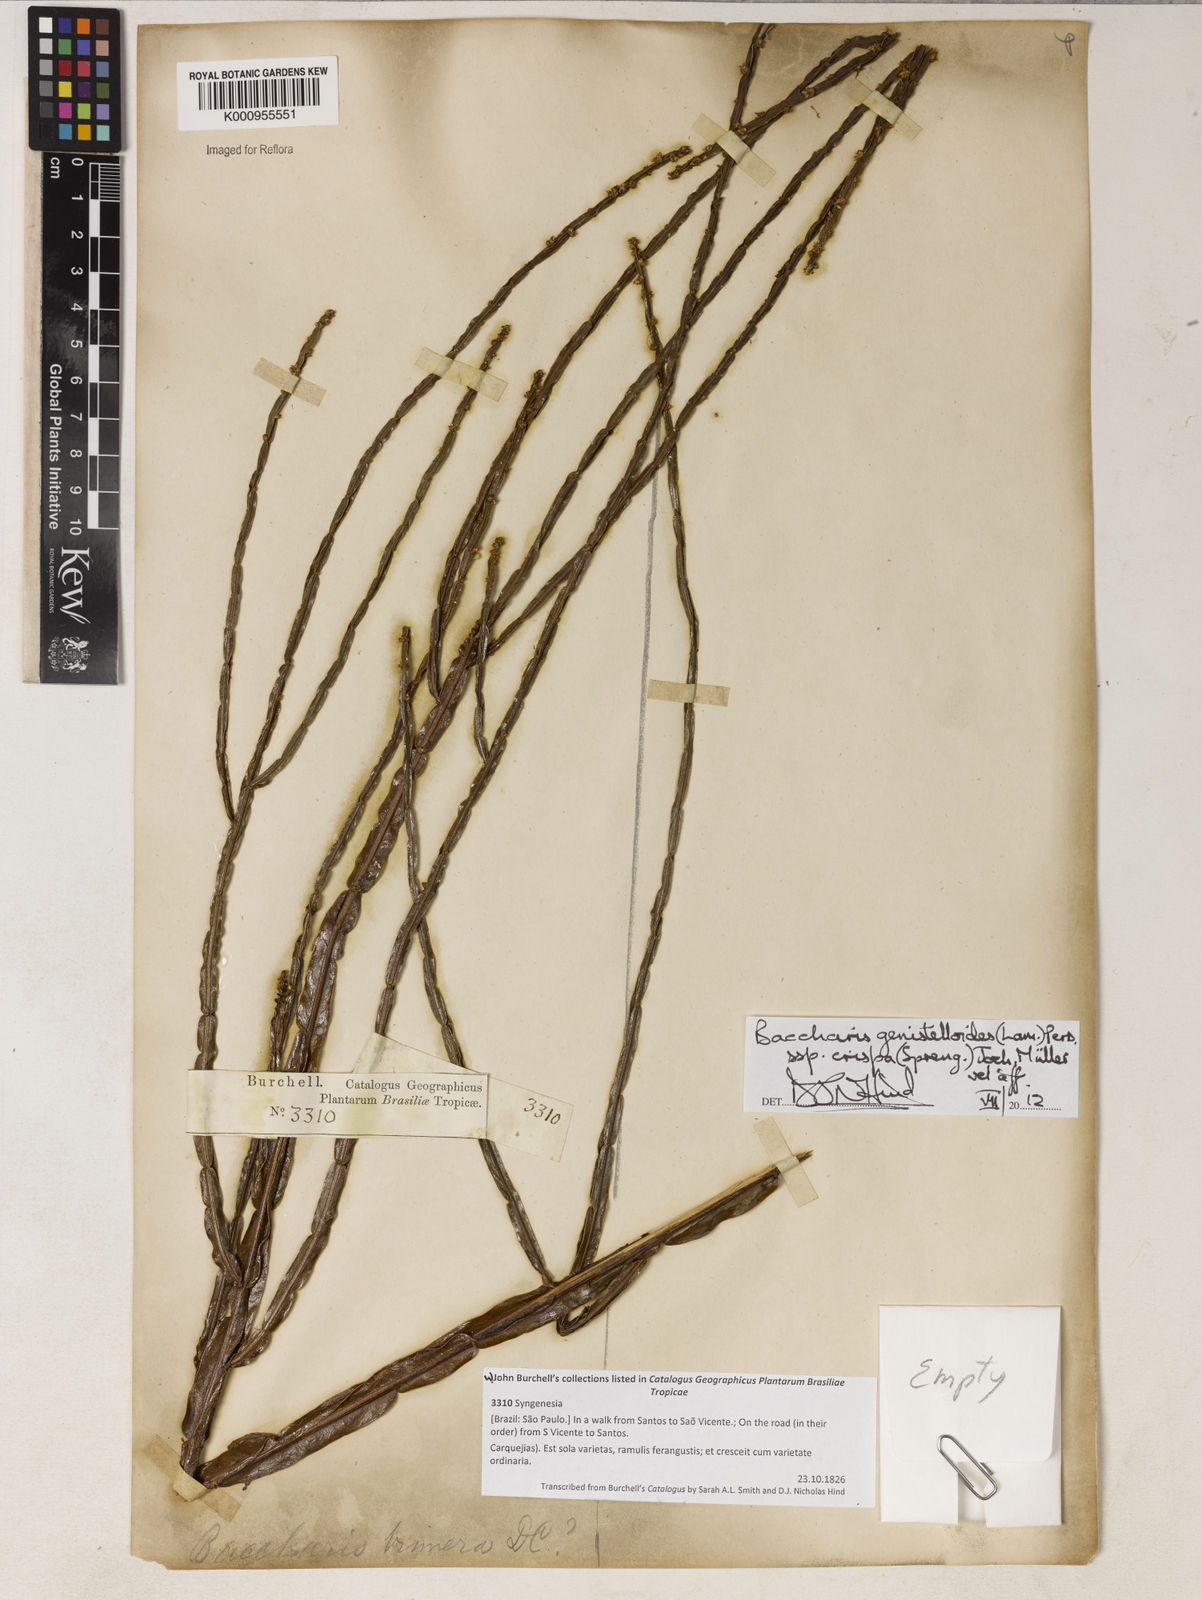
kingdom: Plantae
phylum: Tracheophyta
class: Magnoliopsida
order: Asterales
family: Asteraceae
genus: Baccharis
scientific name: Baccharis genistelloides
